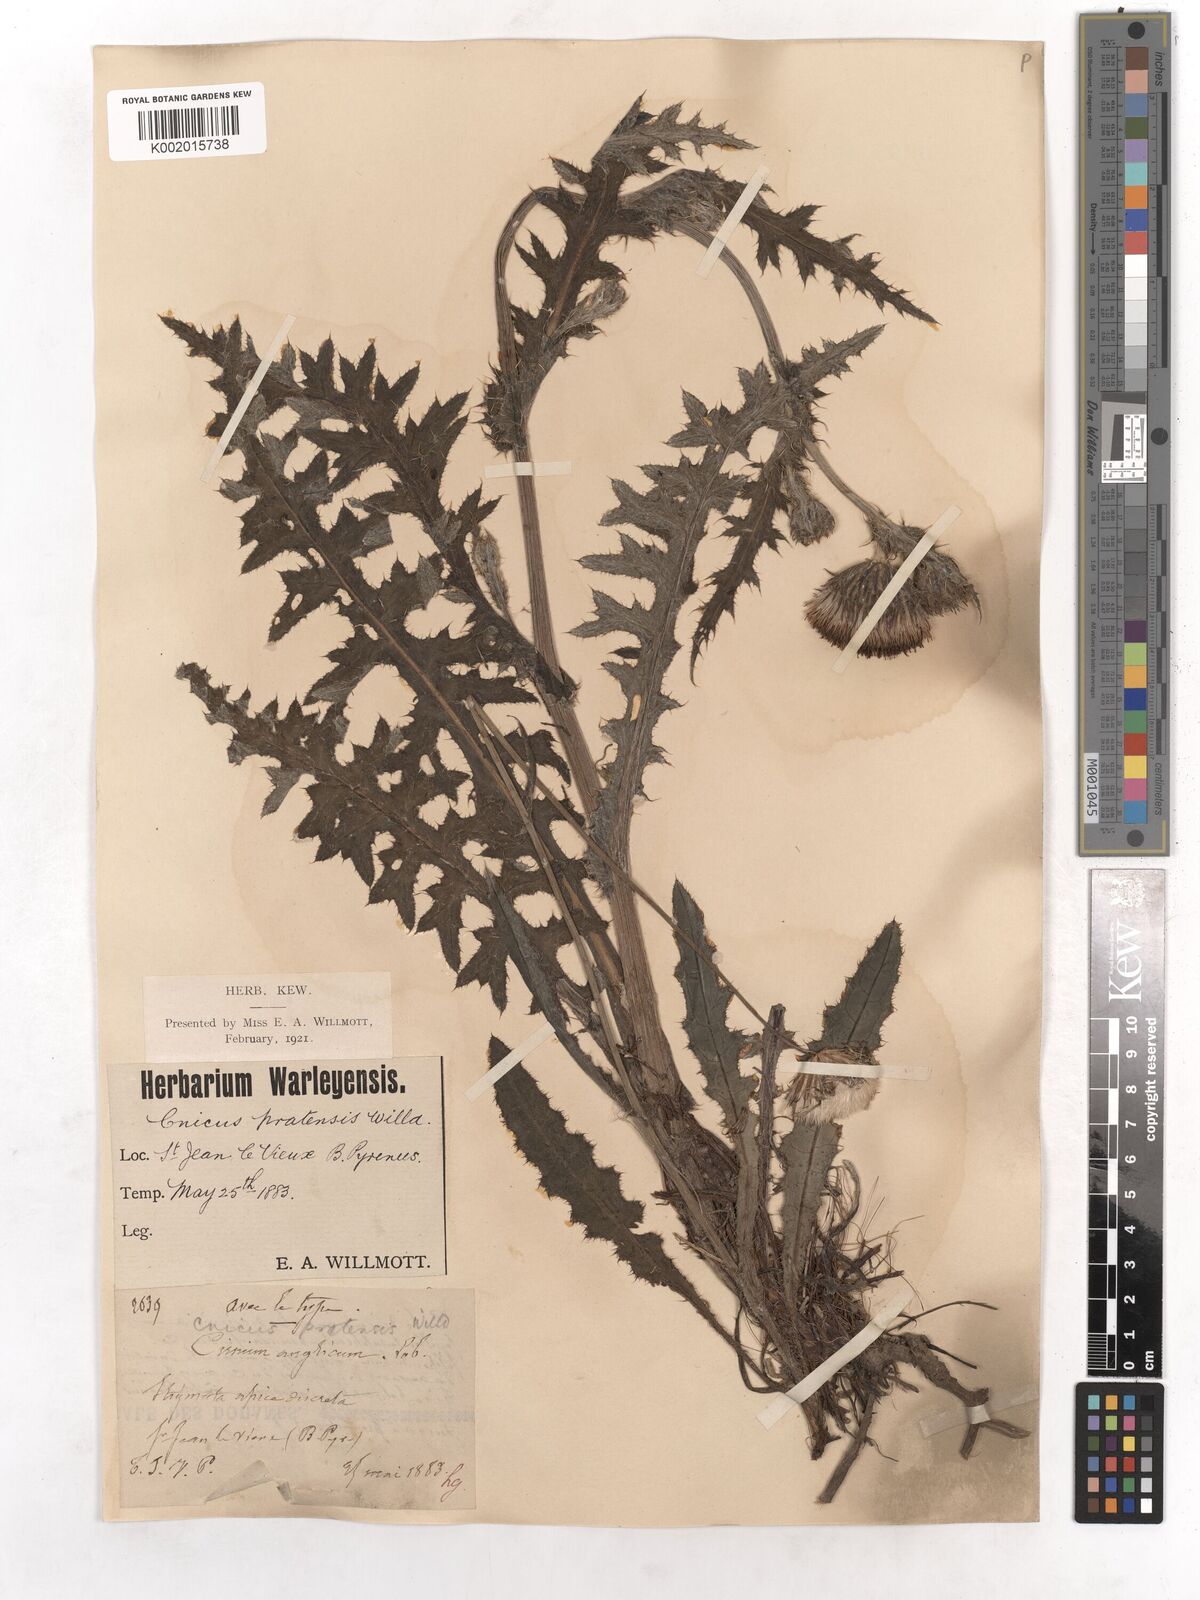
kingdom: Plantae
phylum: Tracheophyta
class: Magnoliopsida
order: Asterales
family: Asteraceae
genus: Cirsium
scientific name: Cirsium dissectum
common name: Meadow thistle
